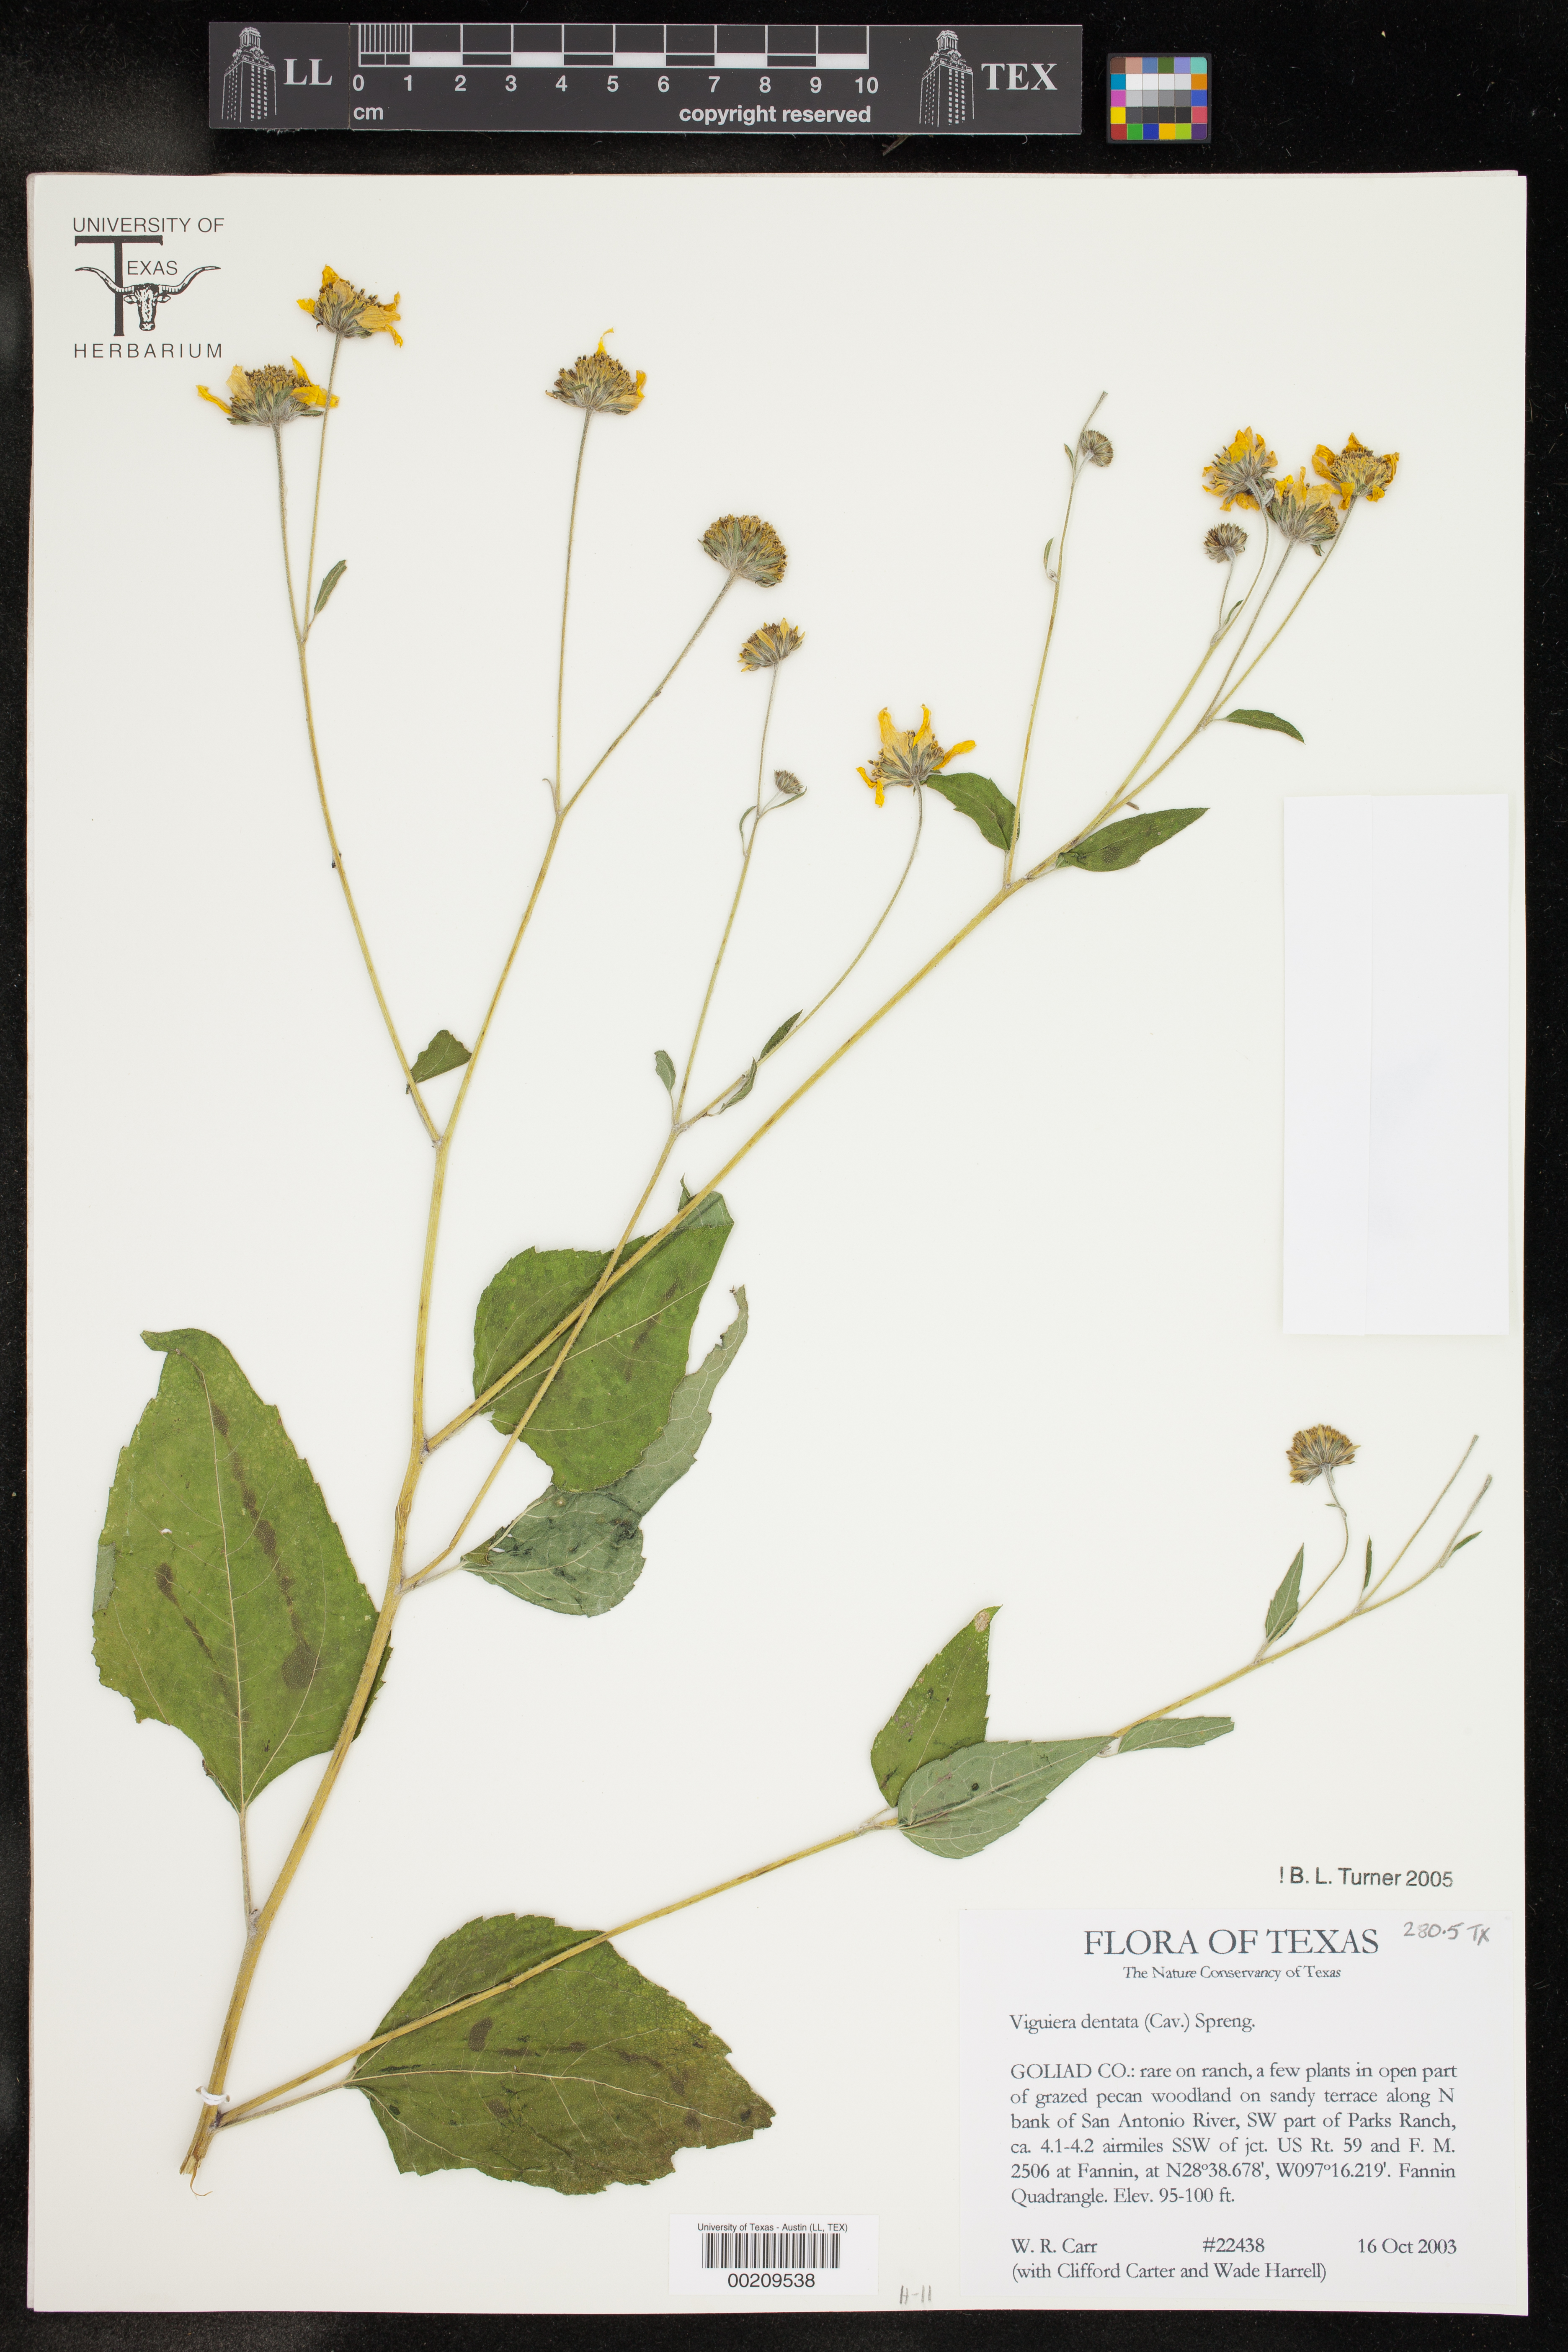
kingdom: Plantae
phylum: Tracheophyta
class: Magnoliopsida
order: Asterales
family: Asteraceae
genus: Viguiera
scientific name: Viguiera dentata
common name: Toothleaf
